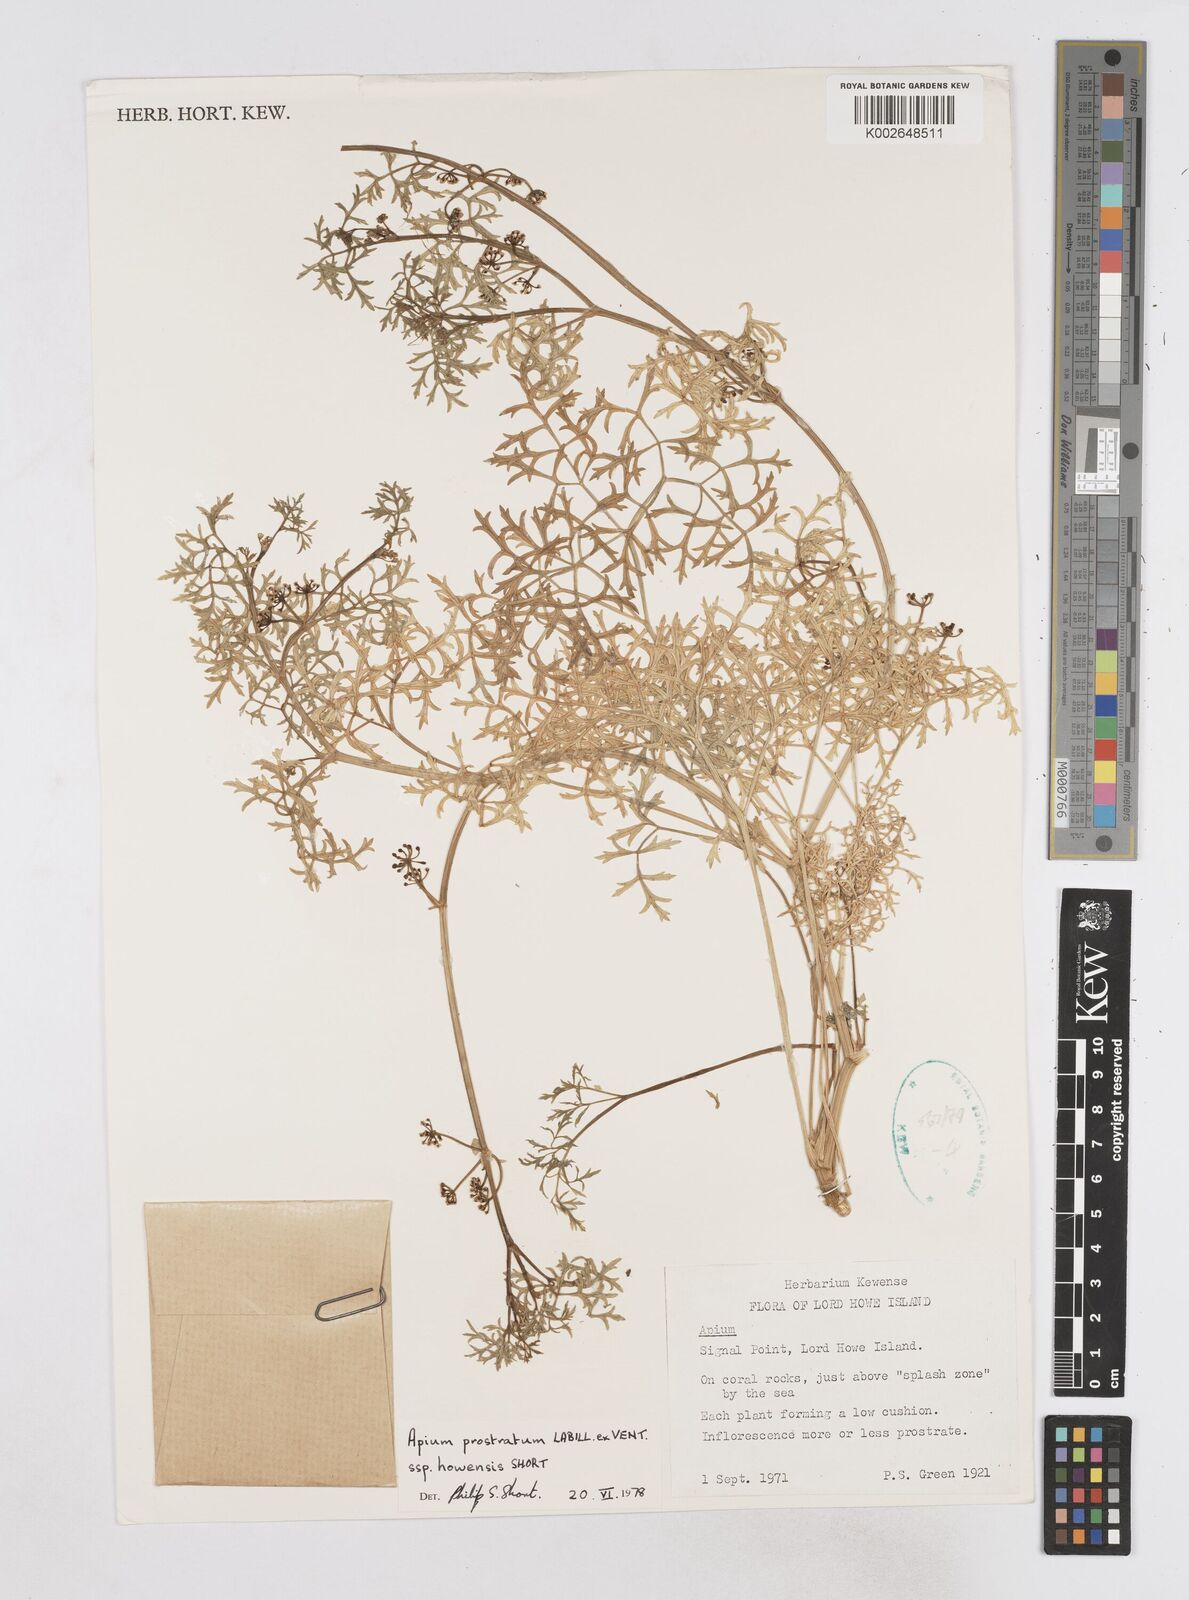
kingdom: Plantae
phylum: Tracheophyta
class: Magnoliopsida
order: Apiales
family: Apiaceae
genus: Apium
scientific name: Apium prostratum
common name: Prostrate marshwort
